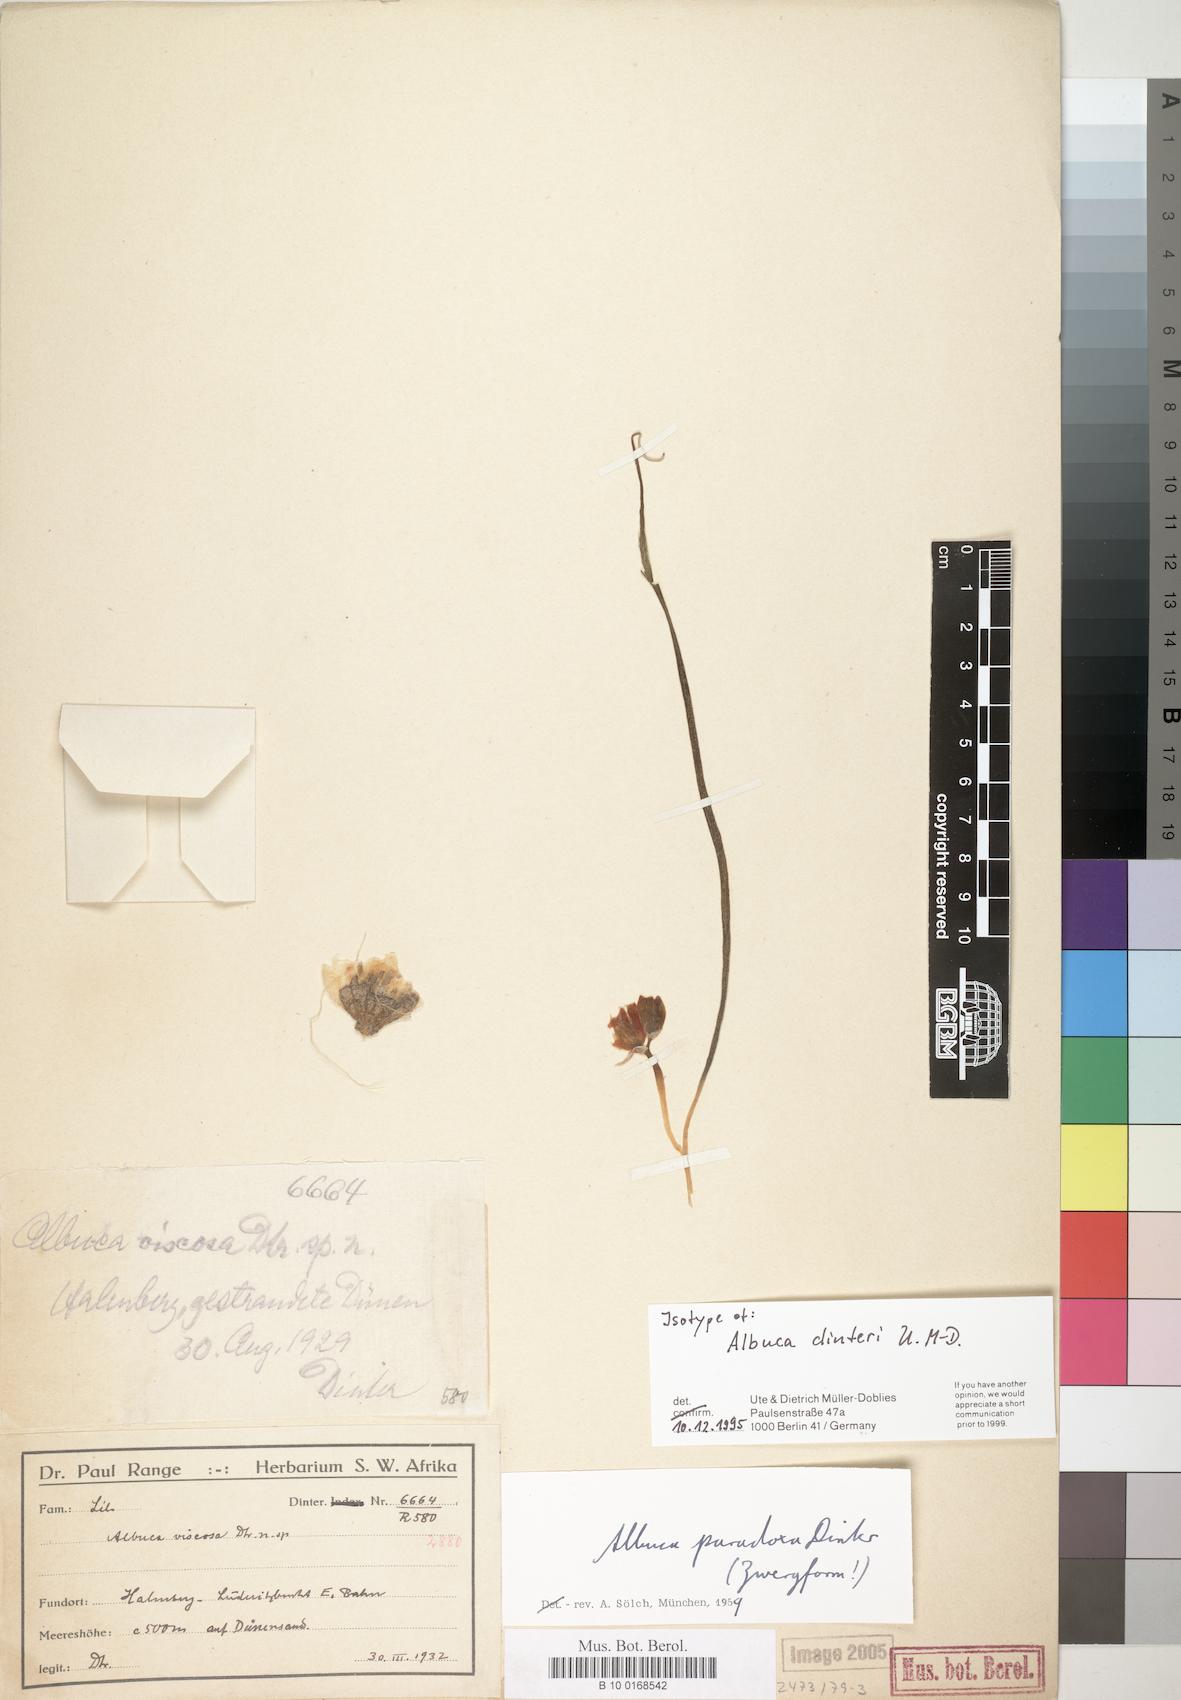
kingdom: Plantae
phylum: Tracheophyta
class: Liliopsida
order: Asparagales
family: Asparagaceae
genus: Albuca
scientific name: Albuca dinteri
